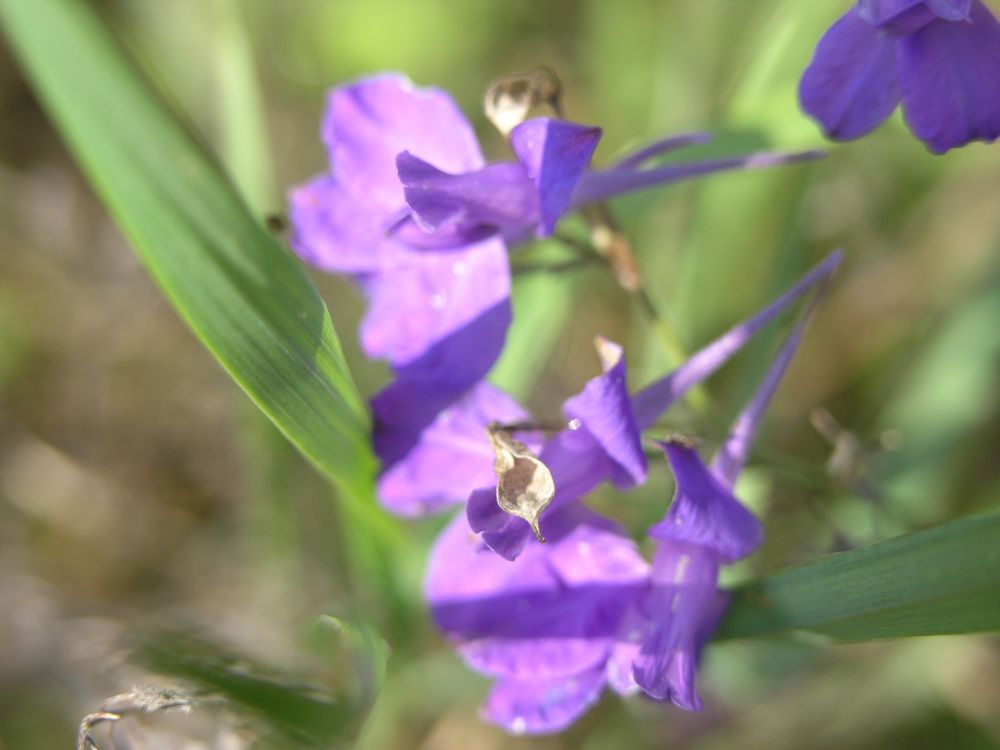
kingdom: Plantae
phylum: Tracheophyta
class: Magnoliopsida
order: Ranunculales
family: Ranunculaceae
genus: Delphinium
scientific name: Delphinium consolida
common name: Branching larkspur
